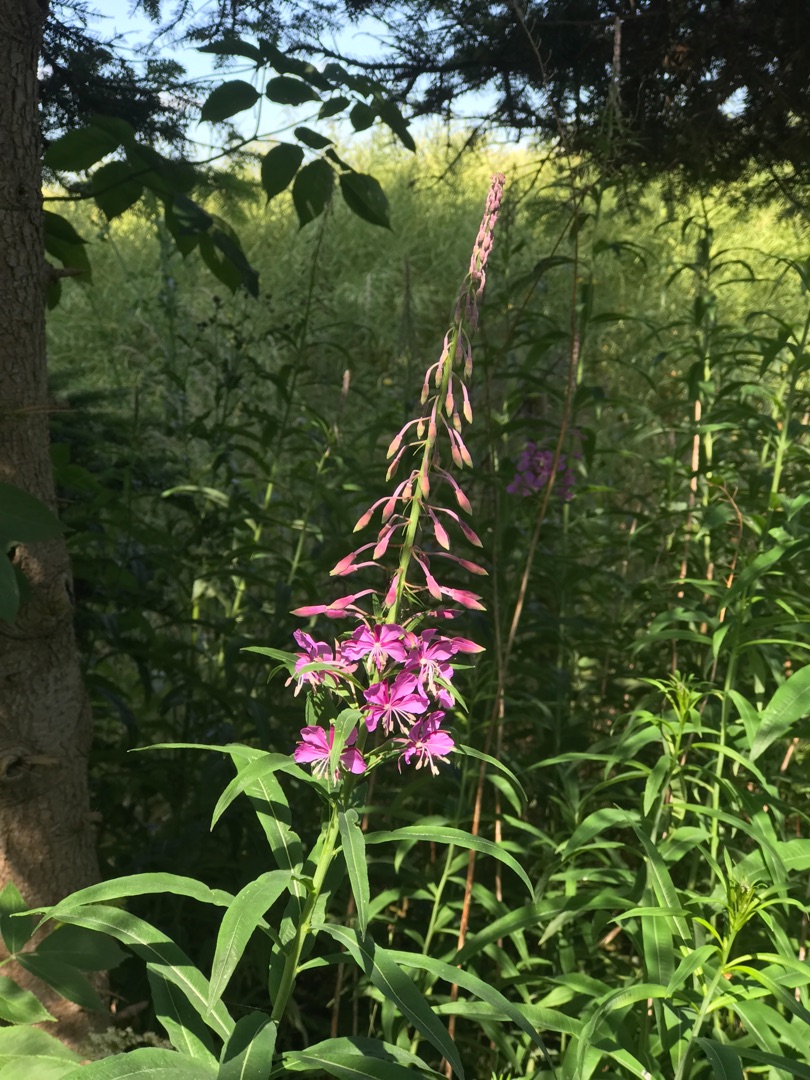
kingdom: Plantae
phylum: Tracheophyta
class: Magnoliopsida
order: Myrtales
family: Onagraceae
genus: Chamaenerion
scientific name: Chamaenerion angustifolium
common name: Gederams
